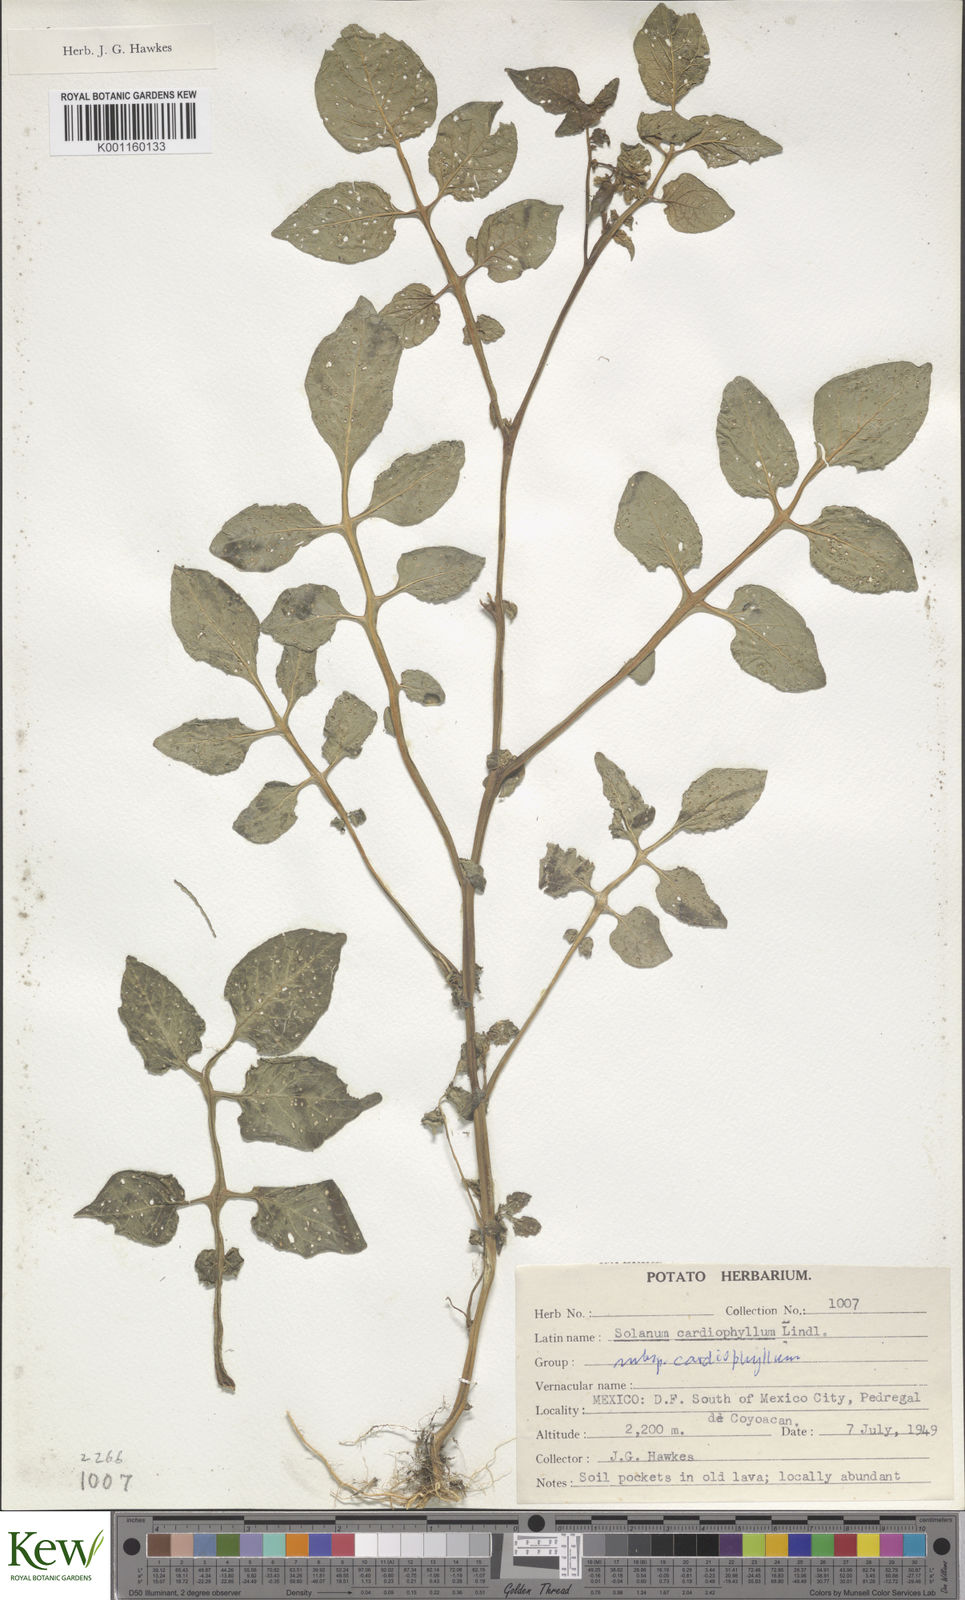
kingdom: Plantae
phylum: Tracheophyta
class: Magnoliopsida
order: Solanales
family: Solanaceae
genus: Solanum
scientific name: Solanum cardiophyllum
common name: Heartleaf horsenettle
